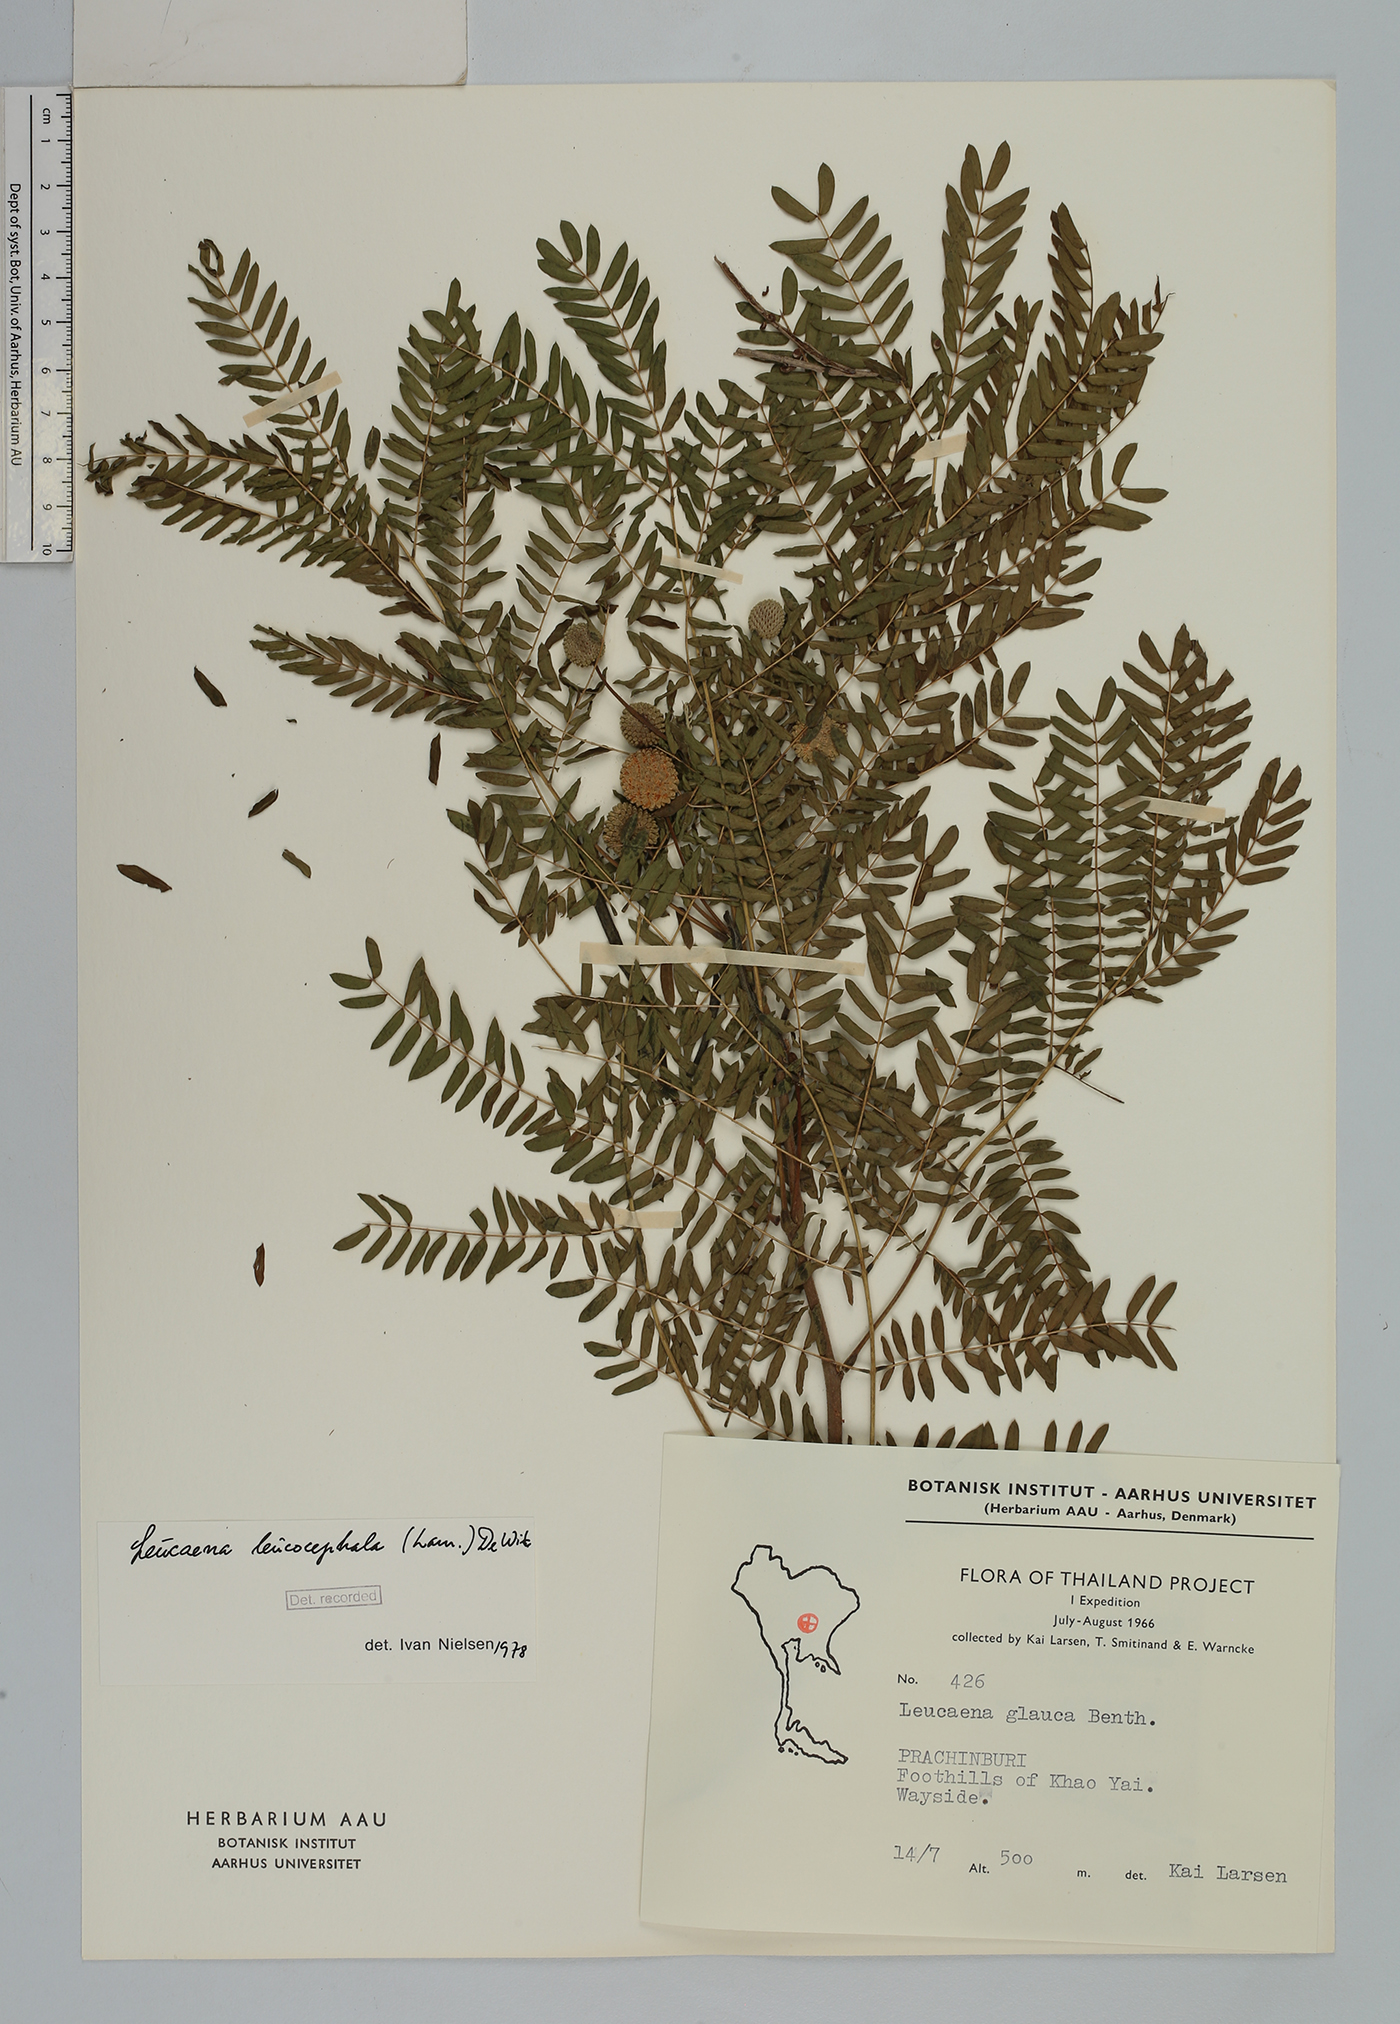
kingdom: Plantae
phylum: Tracheophyta
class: Magnoliopsida
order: Fabales
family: Fabaceae
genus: Leucaena
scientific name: Leucaena leucocephala
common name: White leadtree
